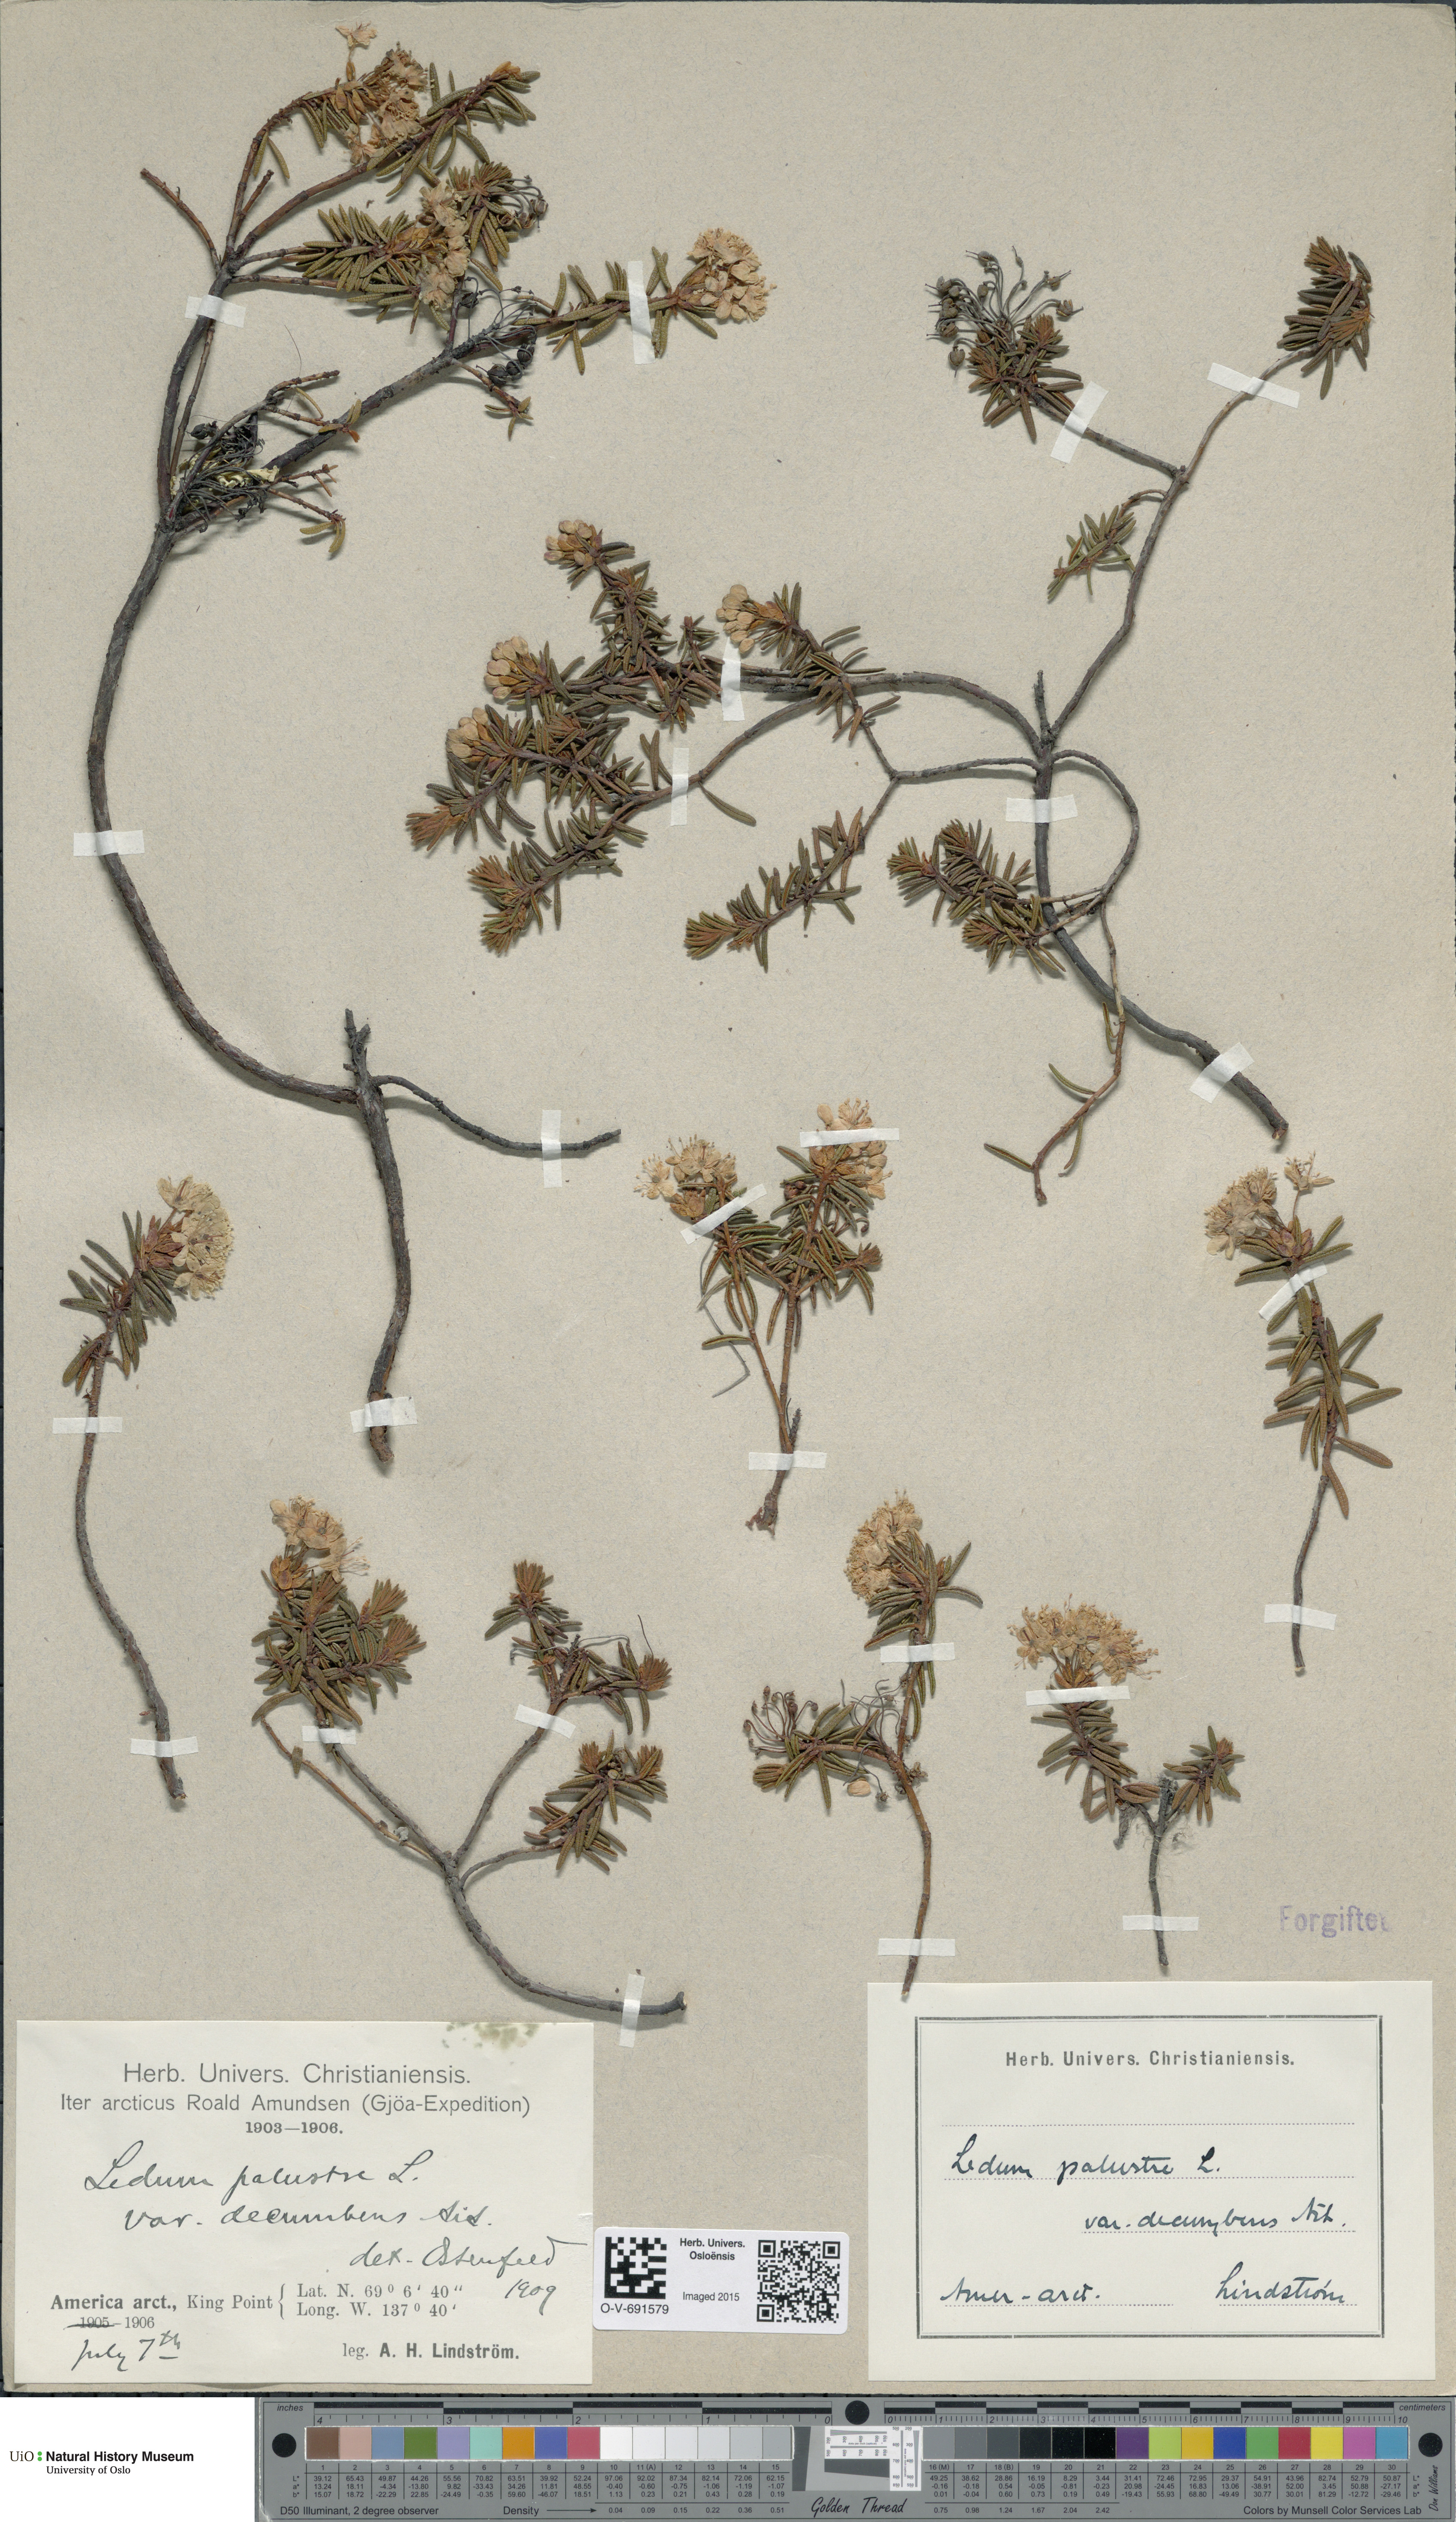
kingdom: Plantae
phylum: Tracheophyta
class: Magnoliopsida
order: Ericales
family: Ericaceae
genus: Rhododendron
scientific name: Rhododendron tomentosum
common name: Marsh labrador tea
